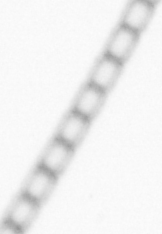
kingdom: Chromista
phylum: Ochrophyta
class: Bacillariophyceae
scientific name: Bacillariophyceae
